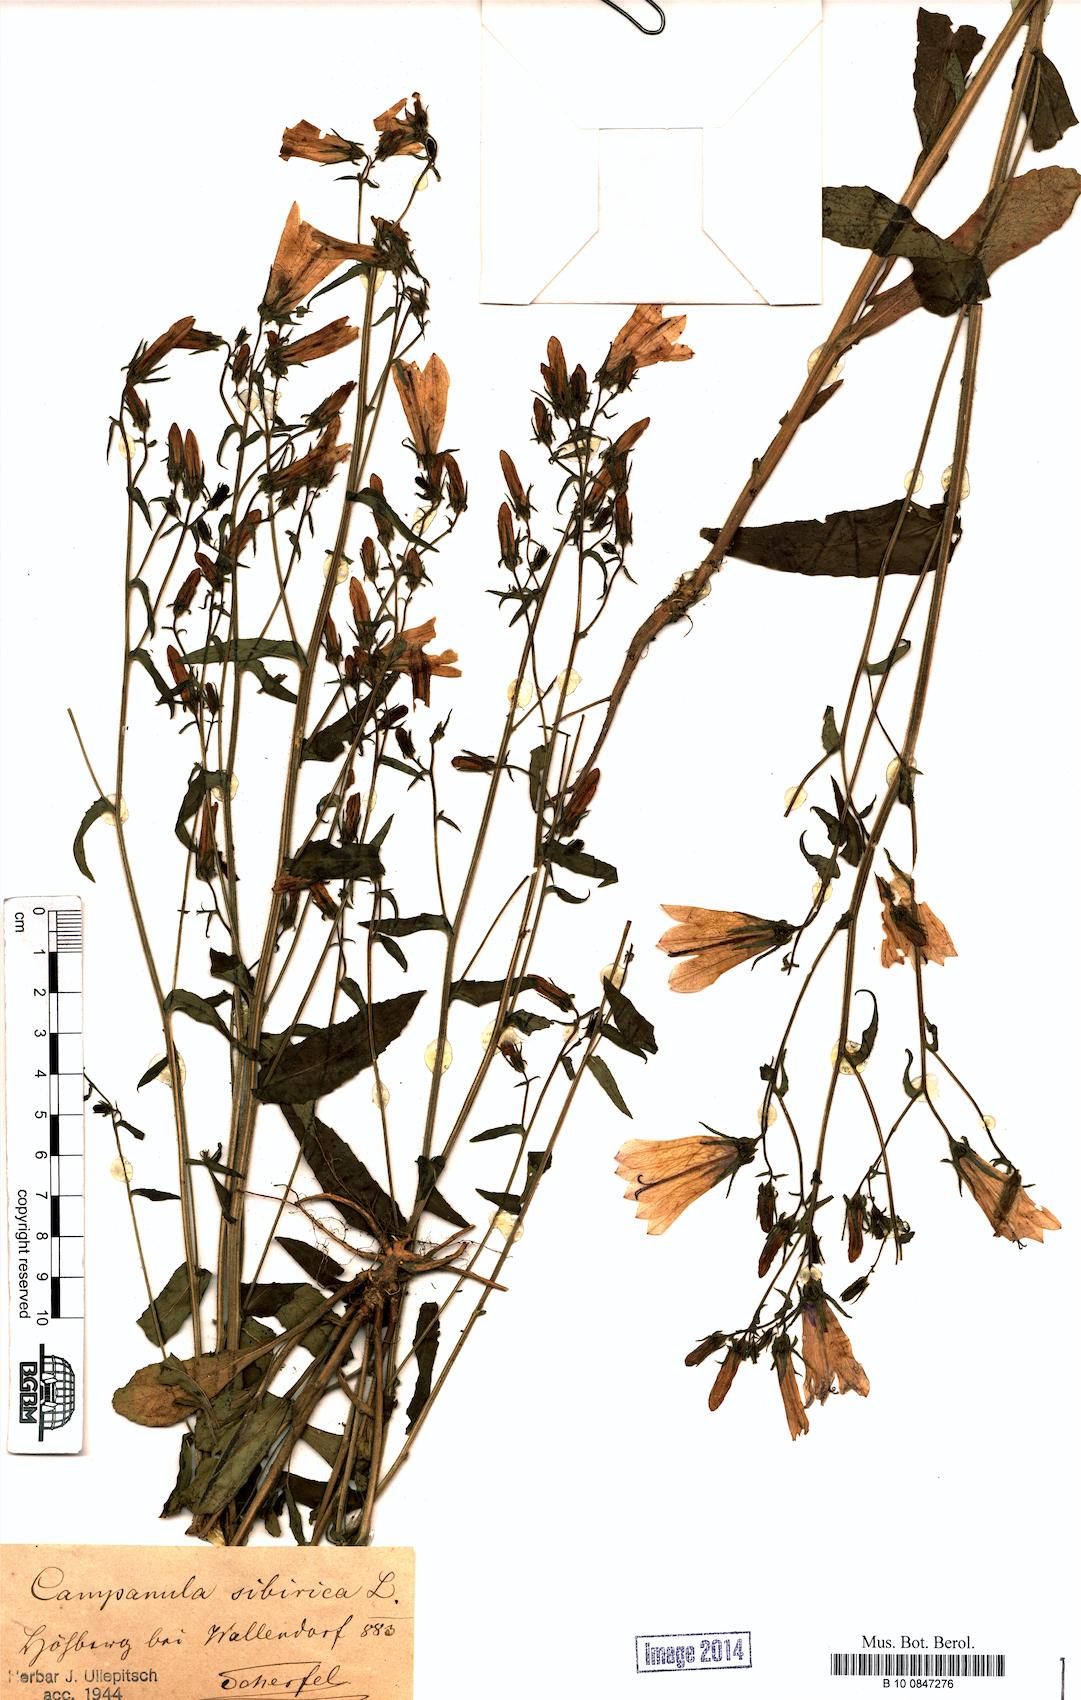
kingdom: Plantae
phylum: Tracheophyta
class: Magnoliopsida
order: Asterales
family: Campanulaceae
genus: Campanula
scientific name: Campanula sibirica
